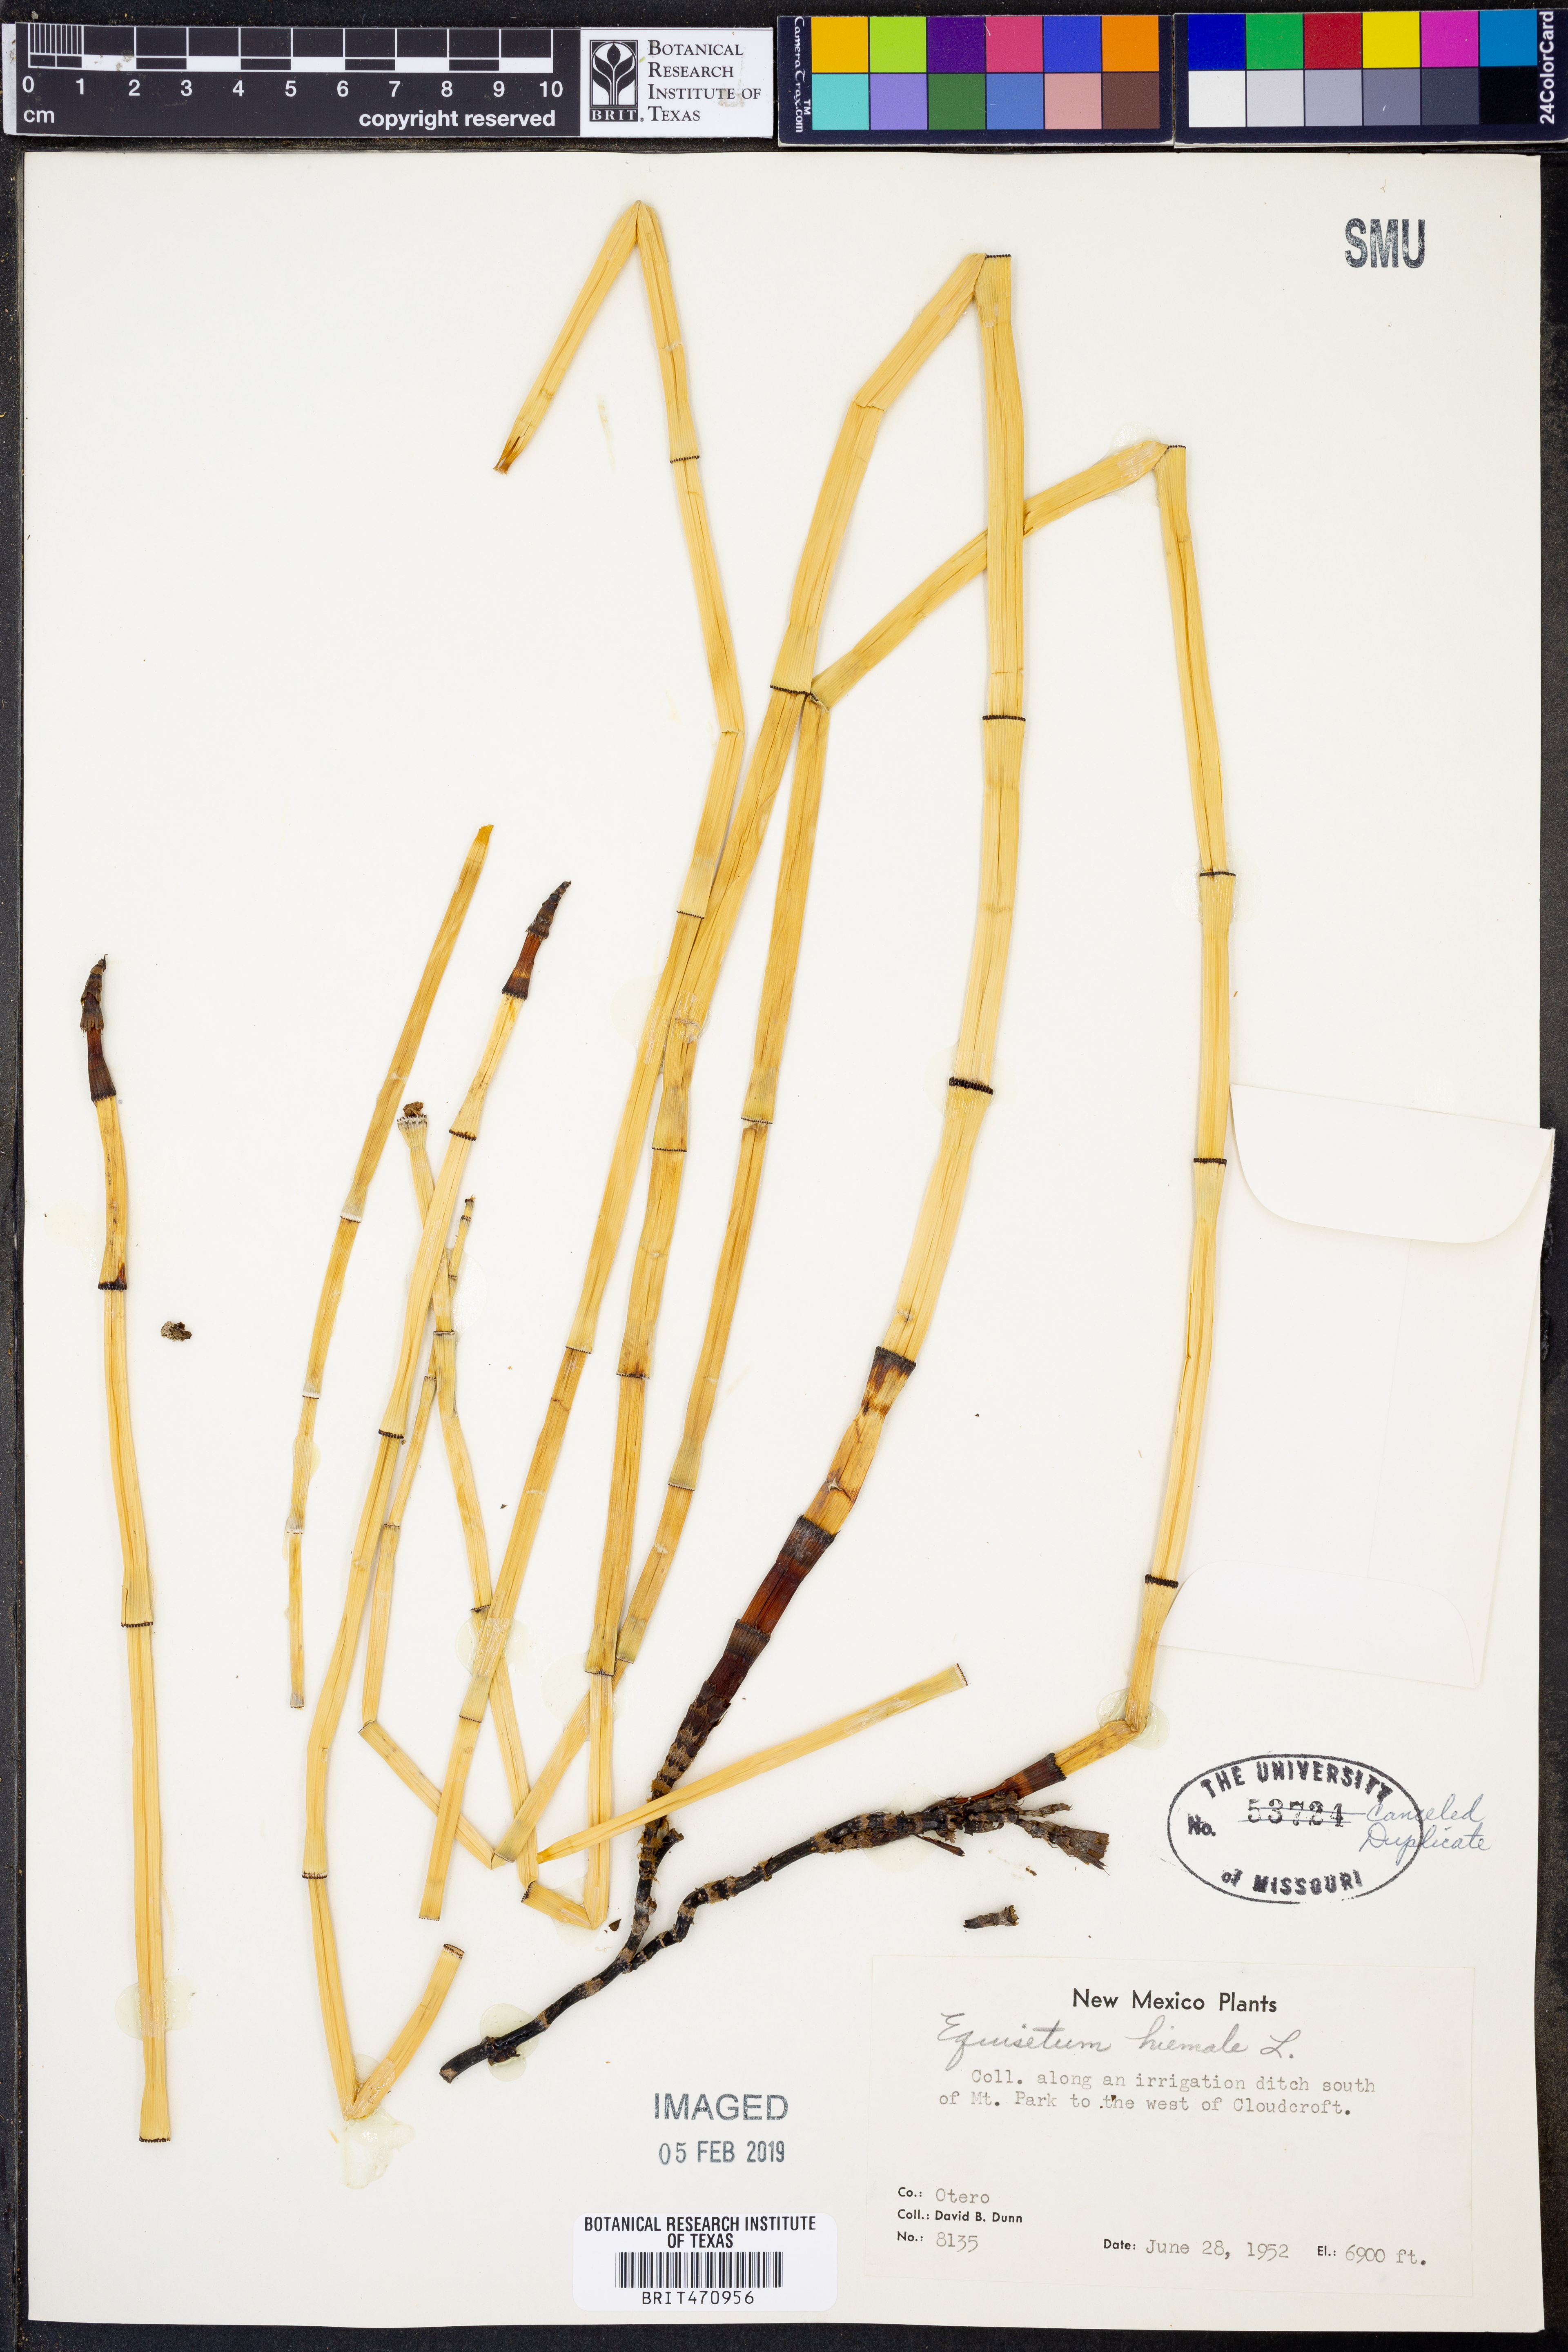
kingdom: Plantae
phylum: Tracheophyta
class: Polypodiopsida
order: Equisetales
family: Equisetaceae
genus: Equisetum
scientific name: Equisetum hyemale
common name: Rough horsetail
